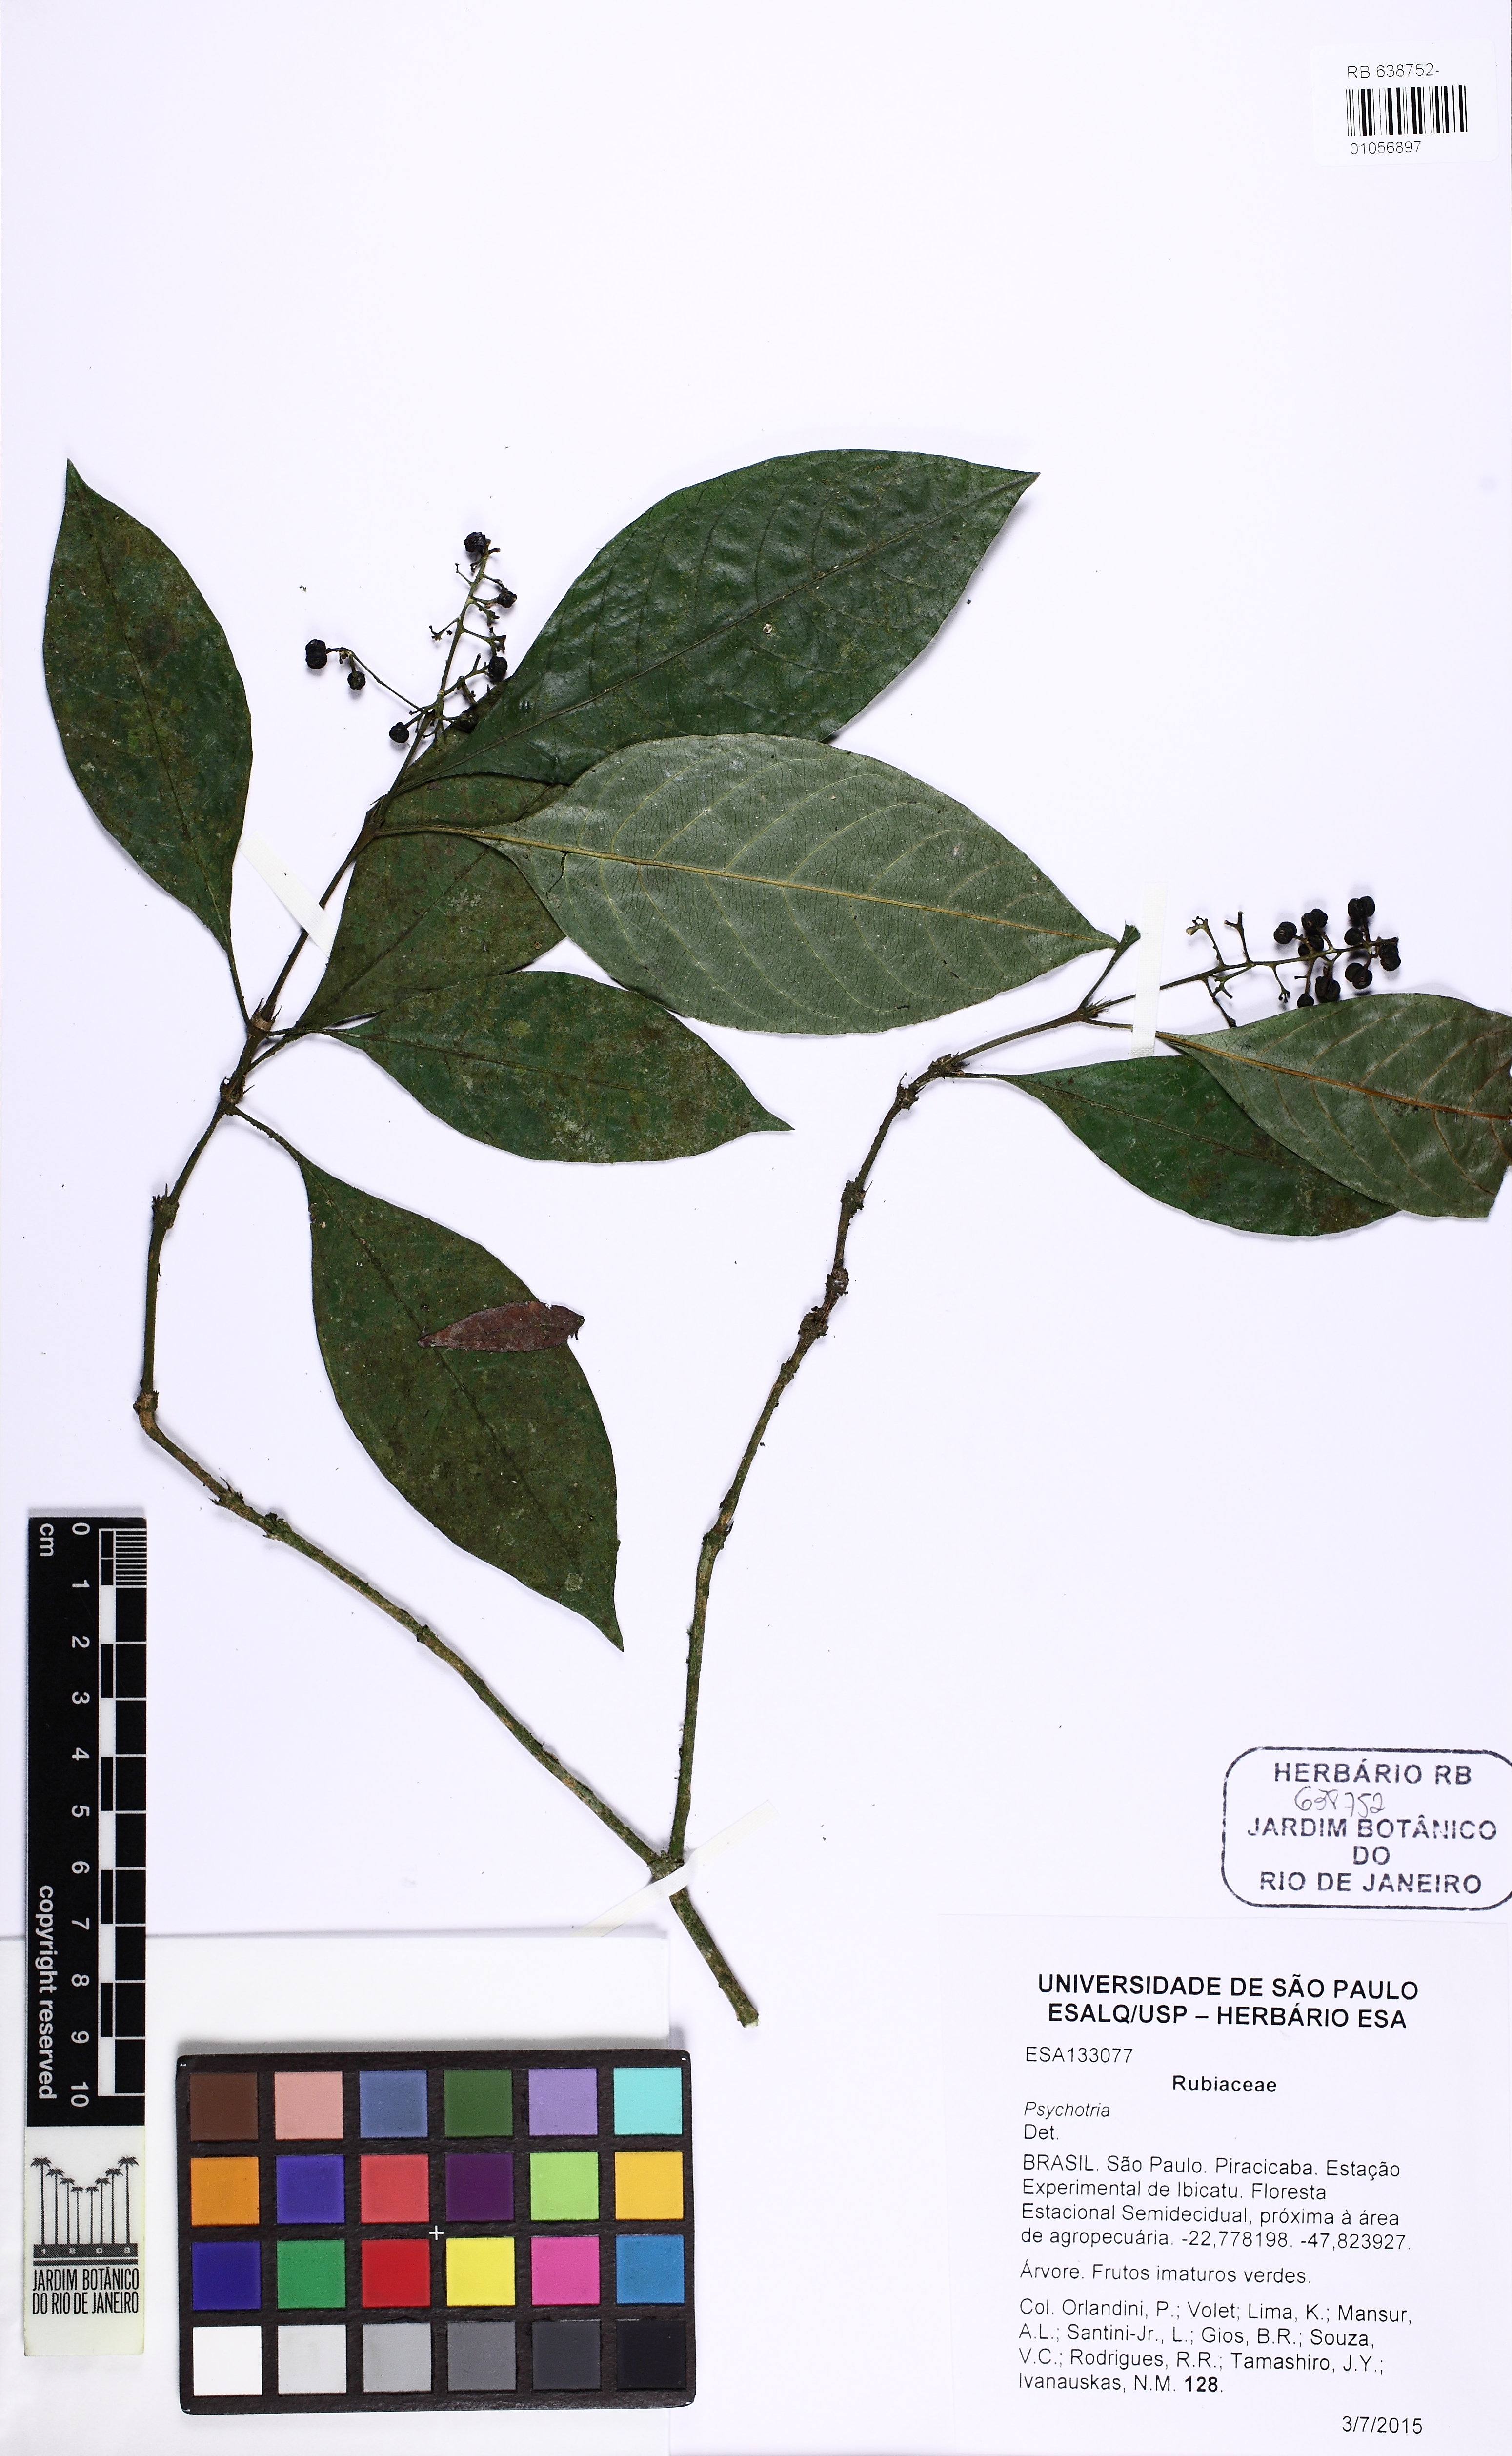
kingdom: Plantae
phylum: Tracheophyta
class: Magnoliopsida
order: Gentianales
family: Rubiaceae
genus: Psychotria
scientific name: Psychotria
